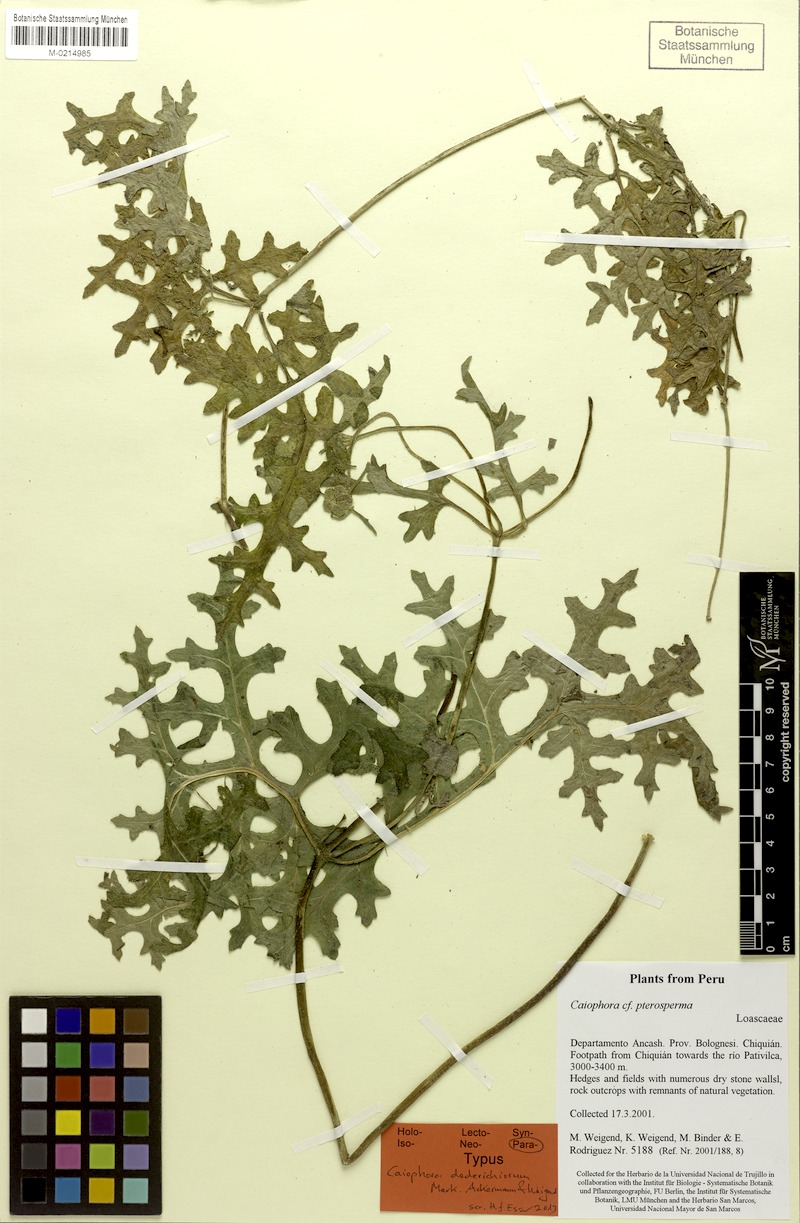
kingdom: Plantae
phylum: Tracheophyta
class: Magnoliopsida
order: Cornales
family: Loasaceae
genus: Caiophora
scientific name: Caiophora dederichiorum
